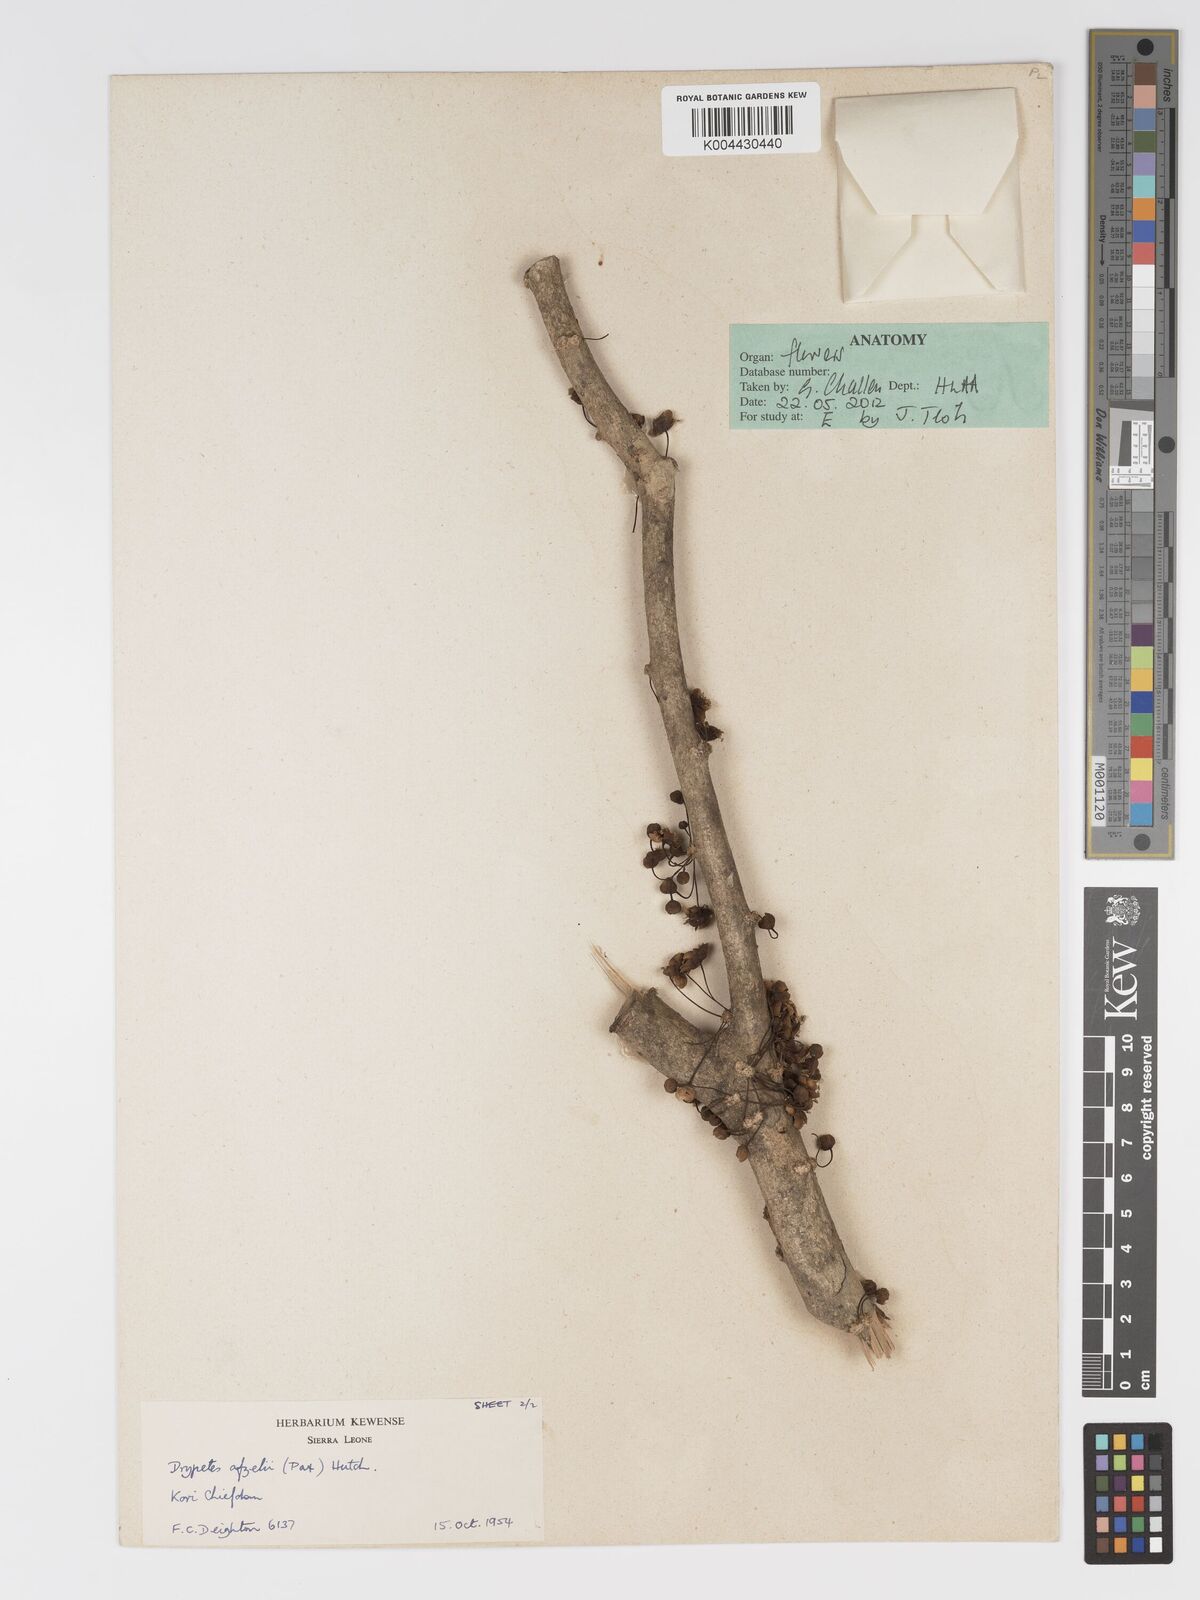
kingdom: Plantae
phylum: Tracheophyta
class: Magnoliopsida
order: Malpighiales
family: Putranjivaceae
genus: Drypetes
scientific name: Drypetes afzelii
